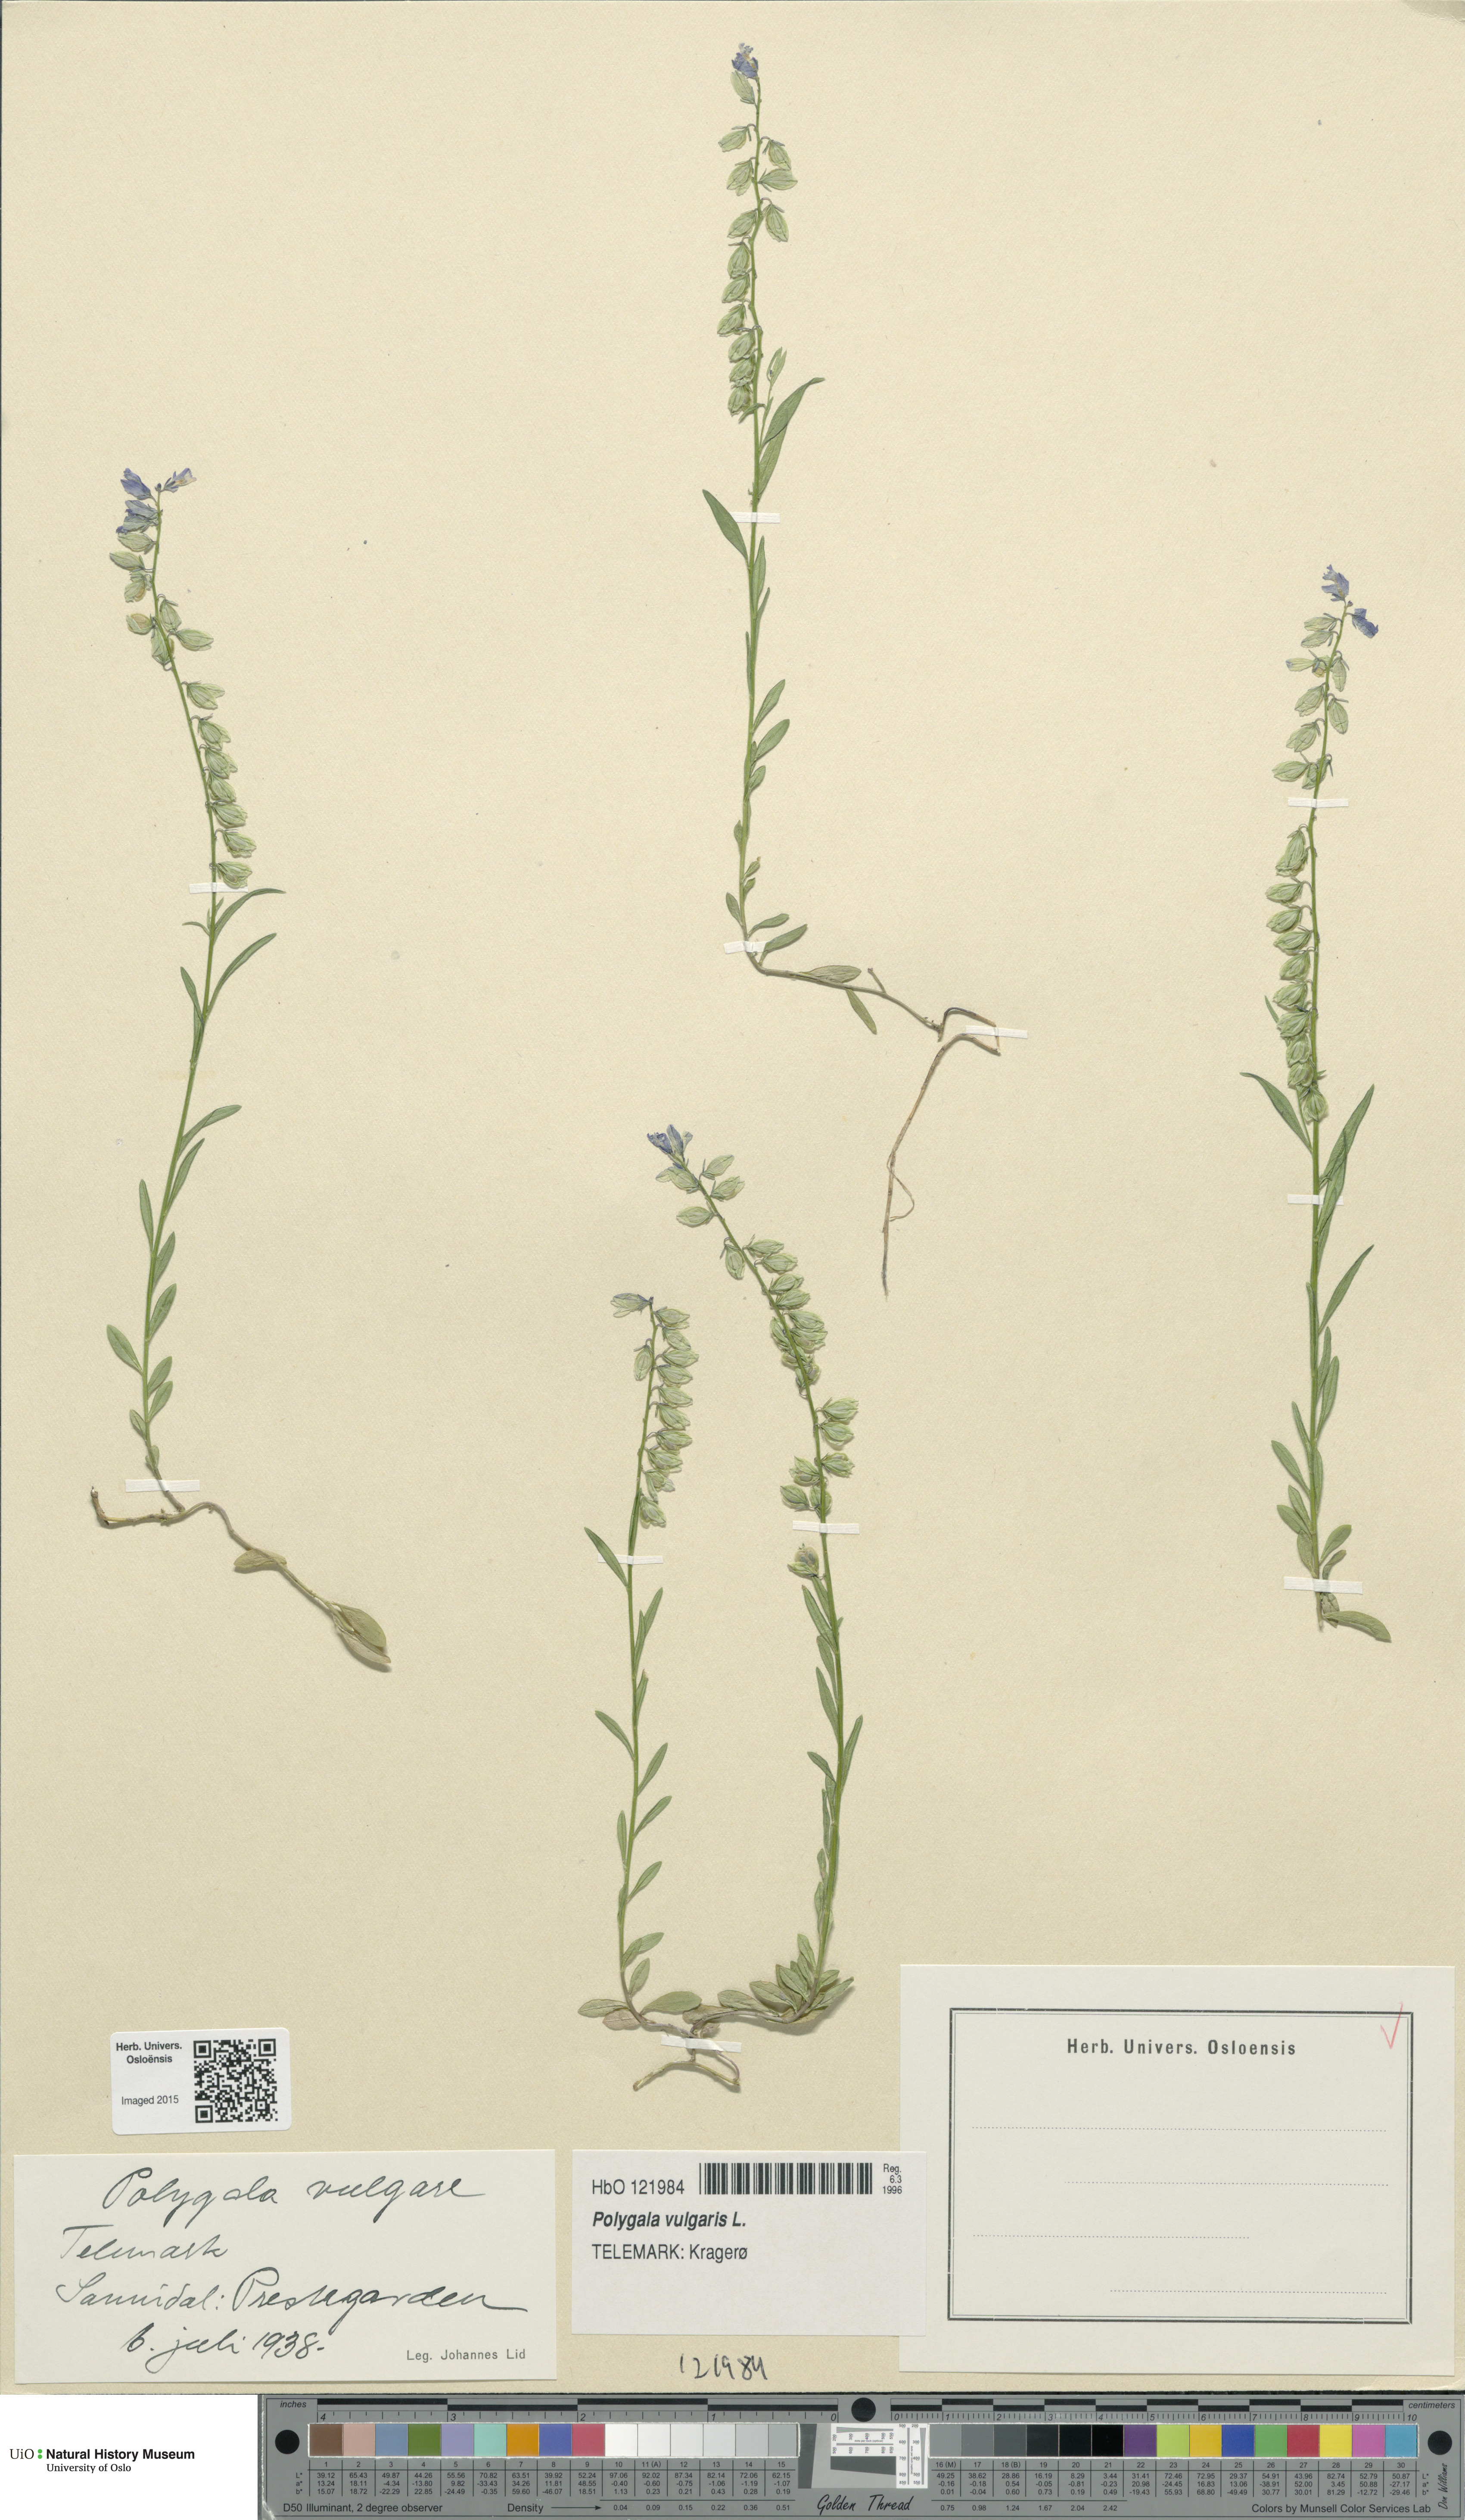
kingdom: Plantae
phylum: Tracheophyta
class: Magnoliopsida
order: Fabales
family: Polygalaceae
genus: Polygala
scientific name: Polygala vulgaris
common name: Common milkwort
